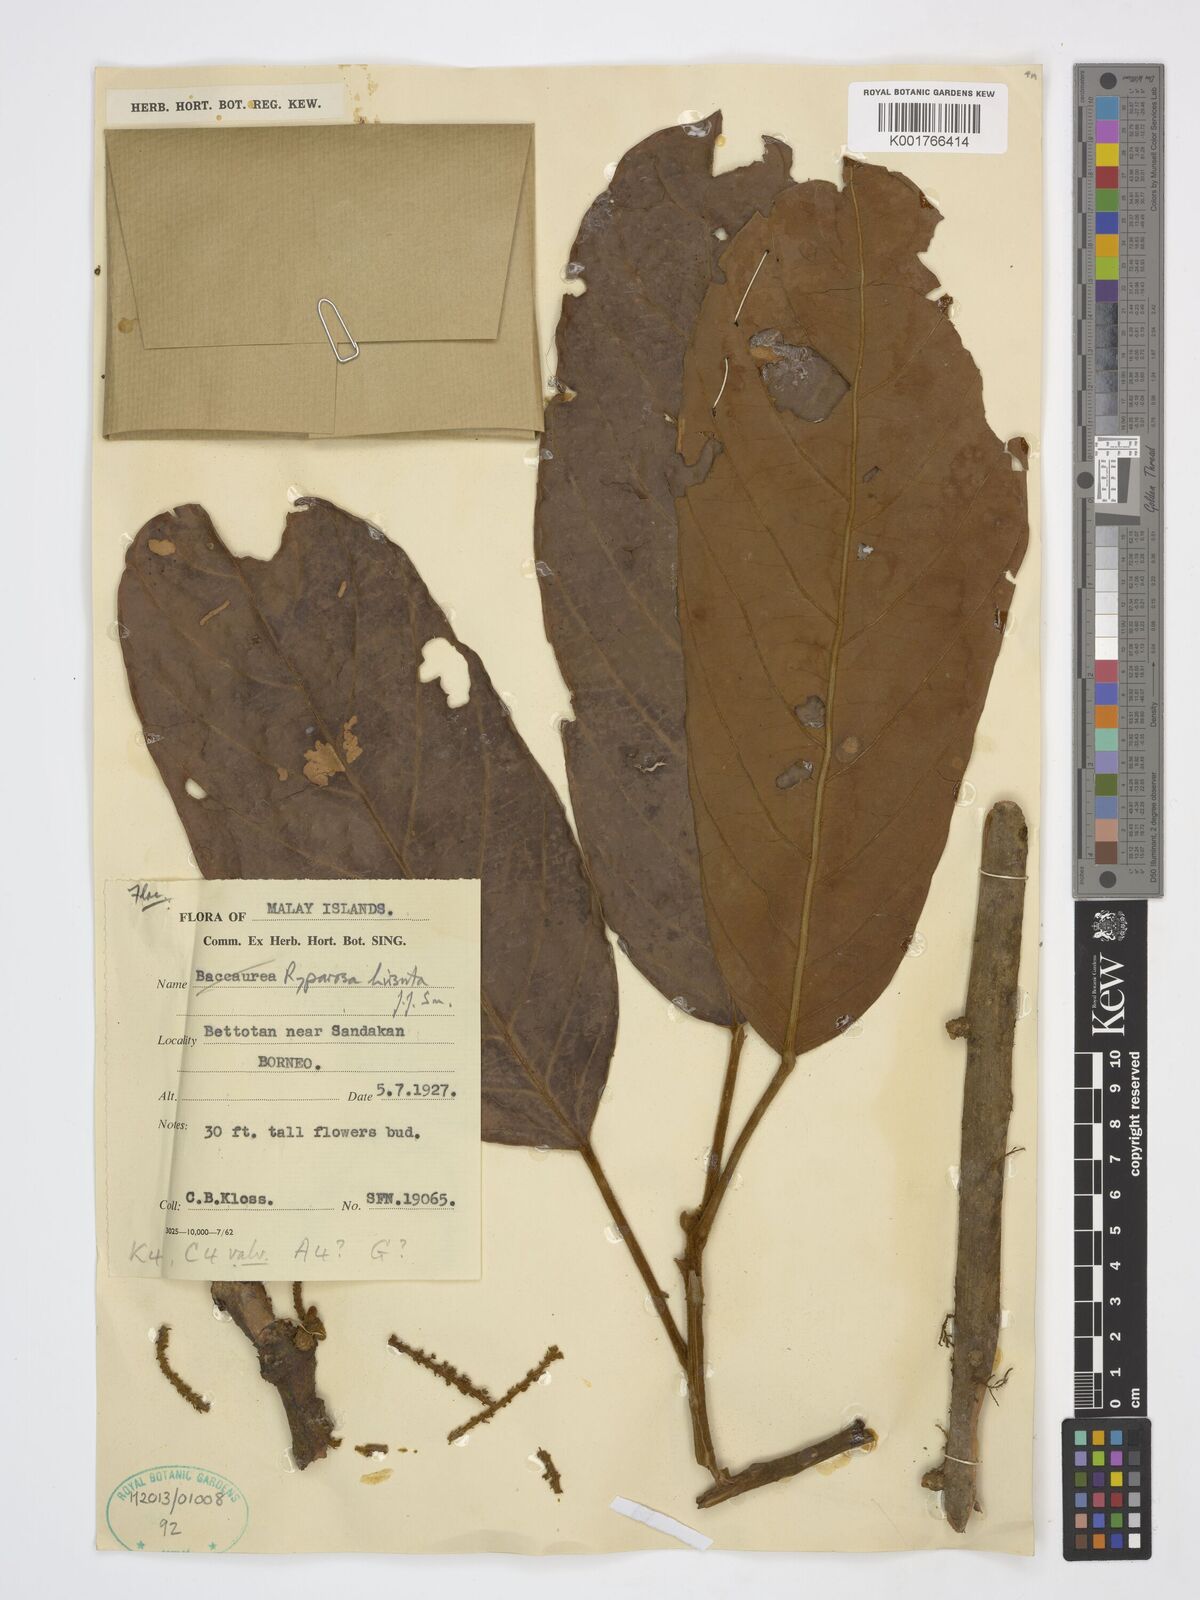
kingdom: Plantae
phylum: Tracheophyta
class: Magnoliopsida
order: Malpighiales
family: Achariaceae
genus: Ryparosa
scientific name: Ryparosa hirsuta
